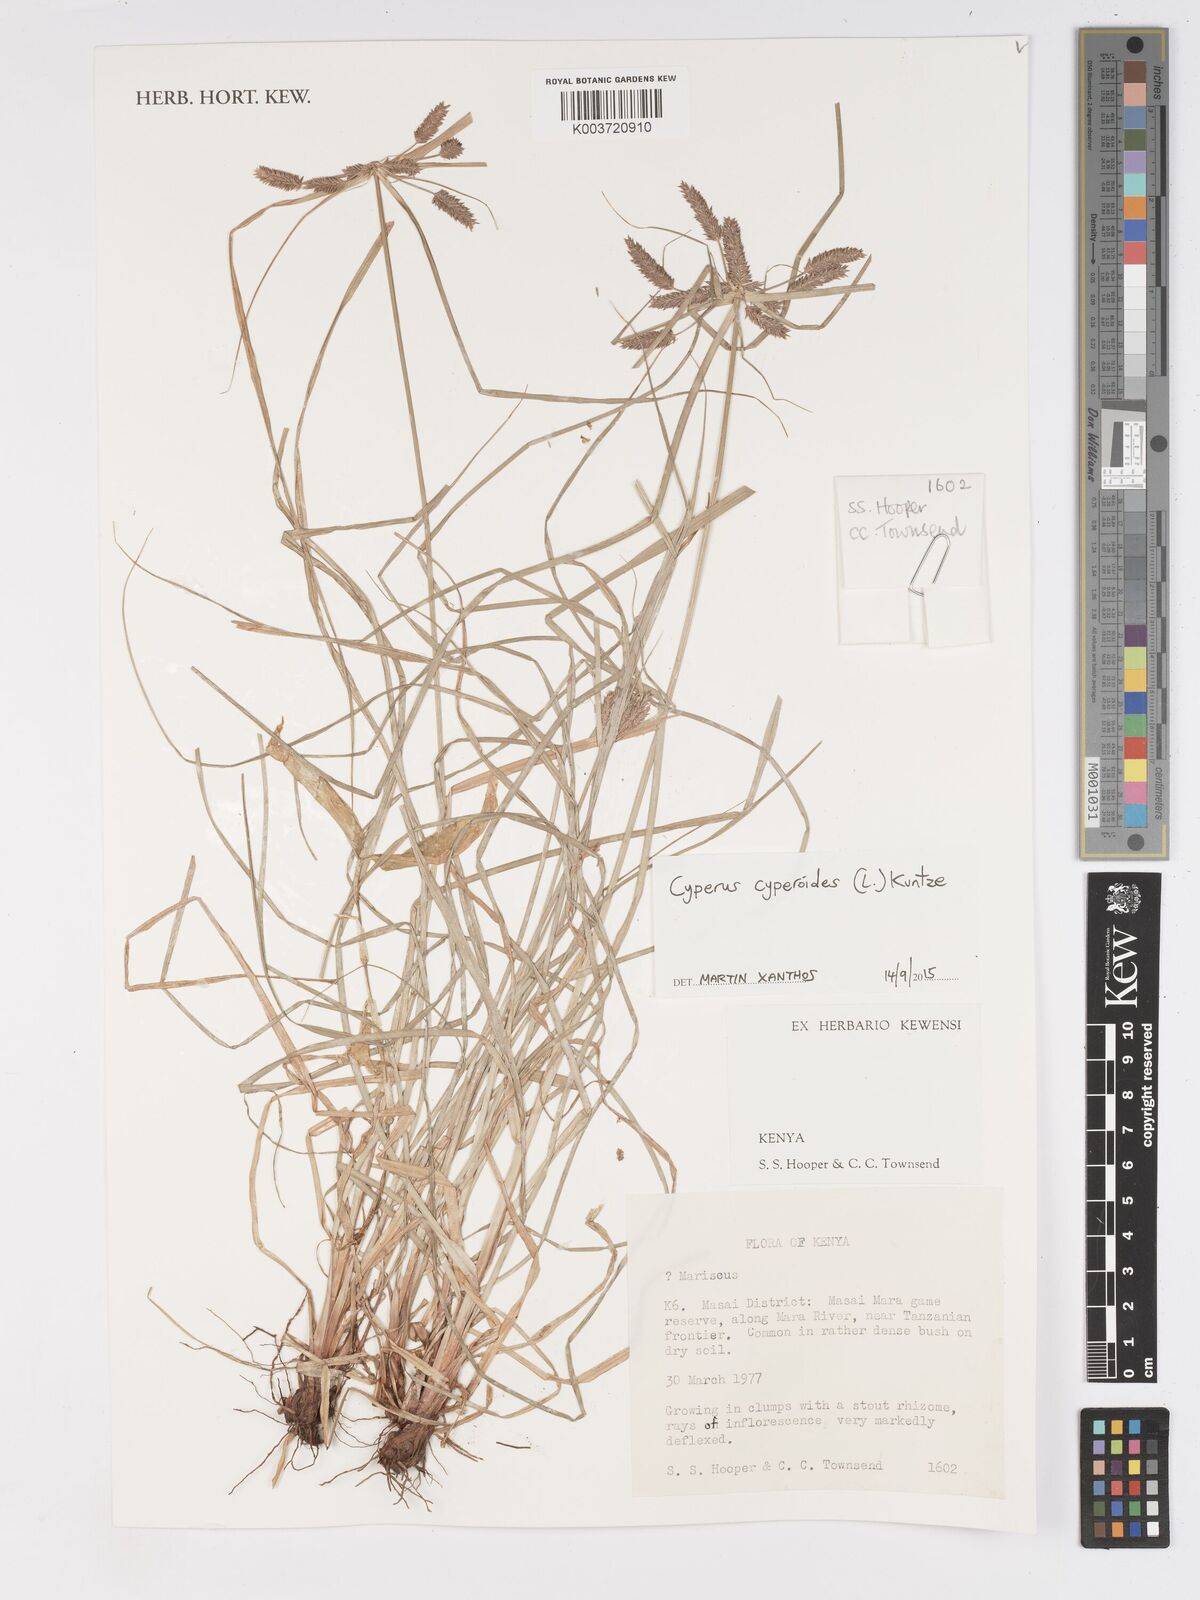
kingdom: Plantae
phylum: Tracheophyta
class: Liliopsida
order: Poales
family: Cyperaceae
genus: Cyperus
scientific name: Cyperus cyperoides
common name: Pacific island flat sedge
